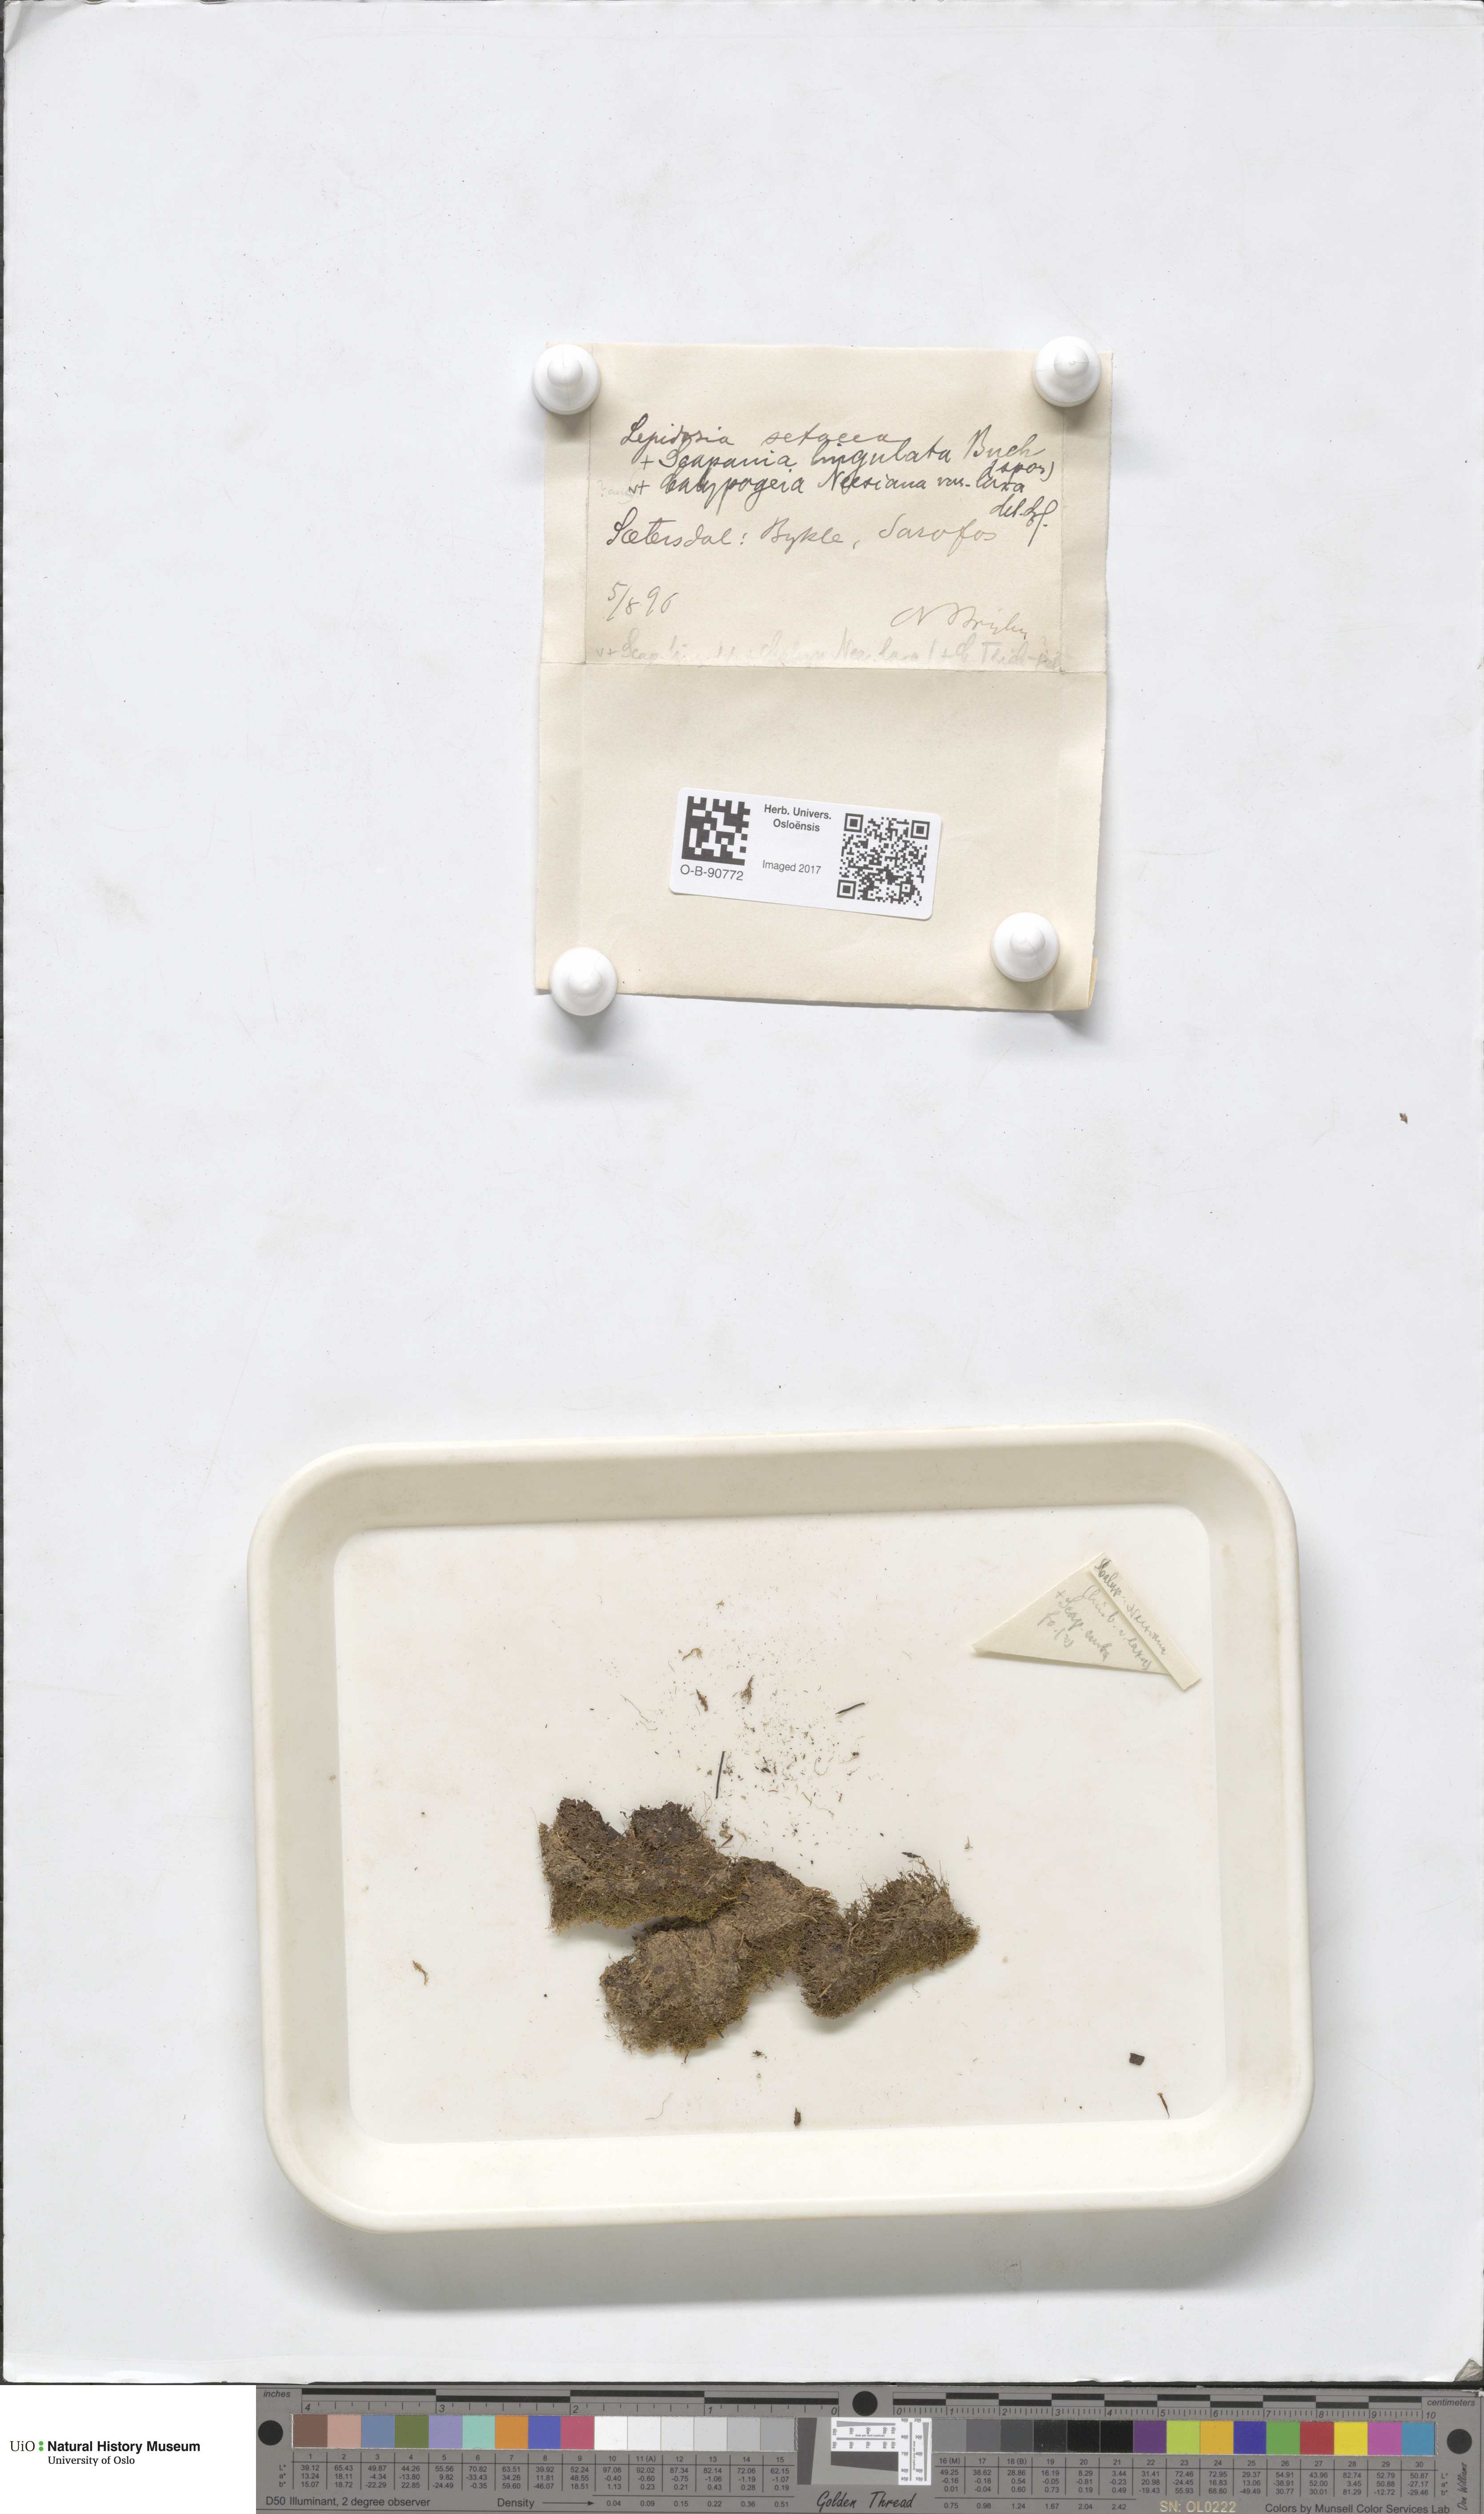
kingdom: Plantae
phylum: Marchantiophyta
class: Jungermanniopsida
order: Jungermanniales
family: Lepidoziaceae
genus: Kurzia
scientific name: Kurzia pauciflora
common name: Bristly fingerwort
